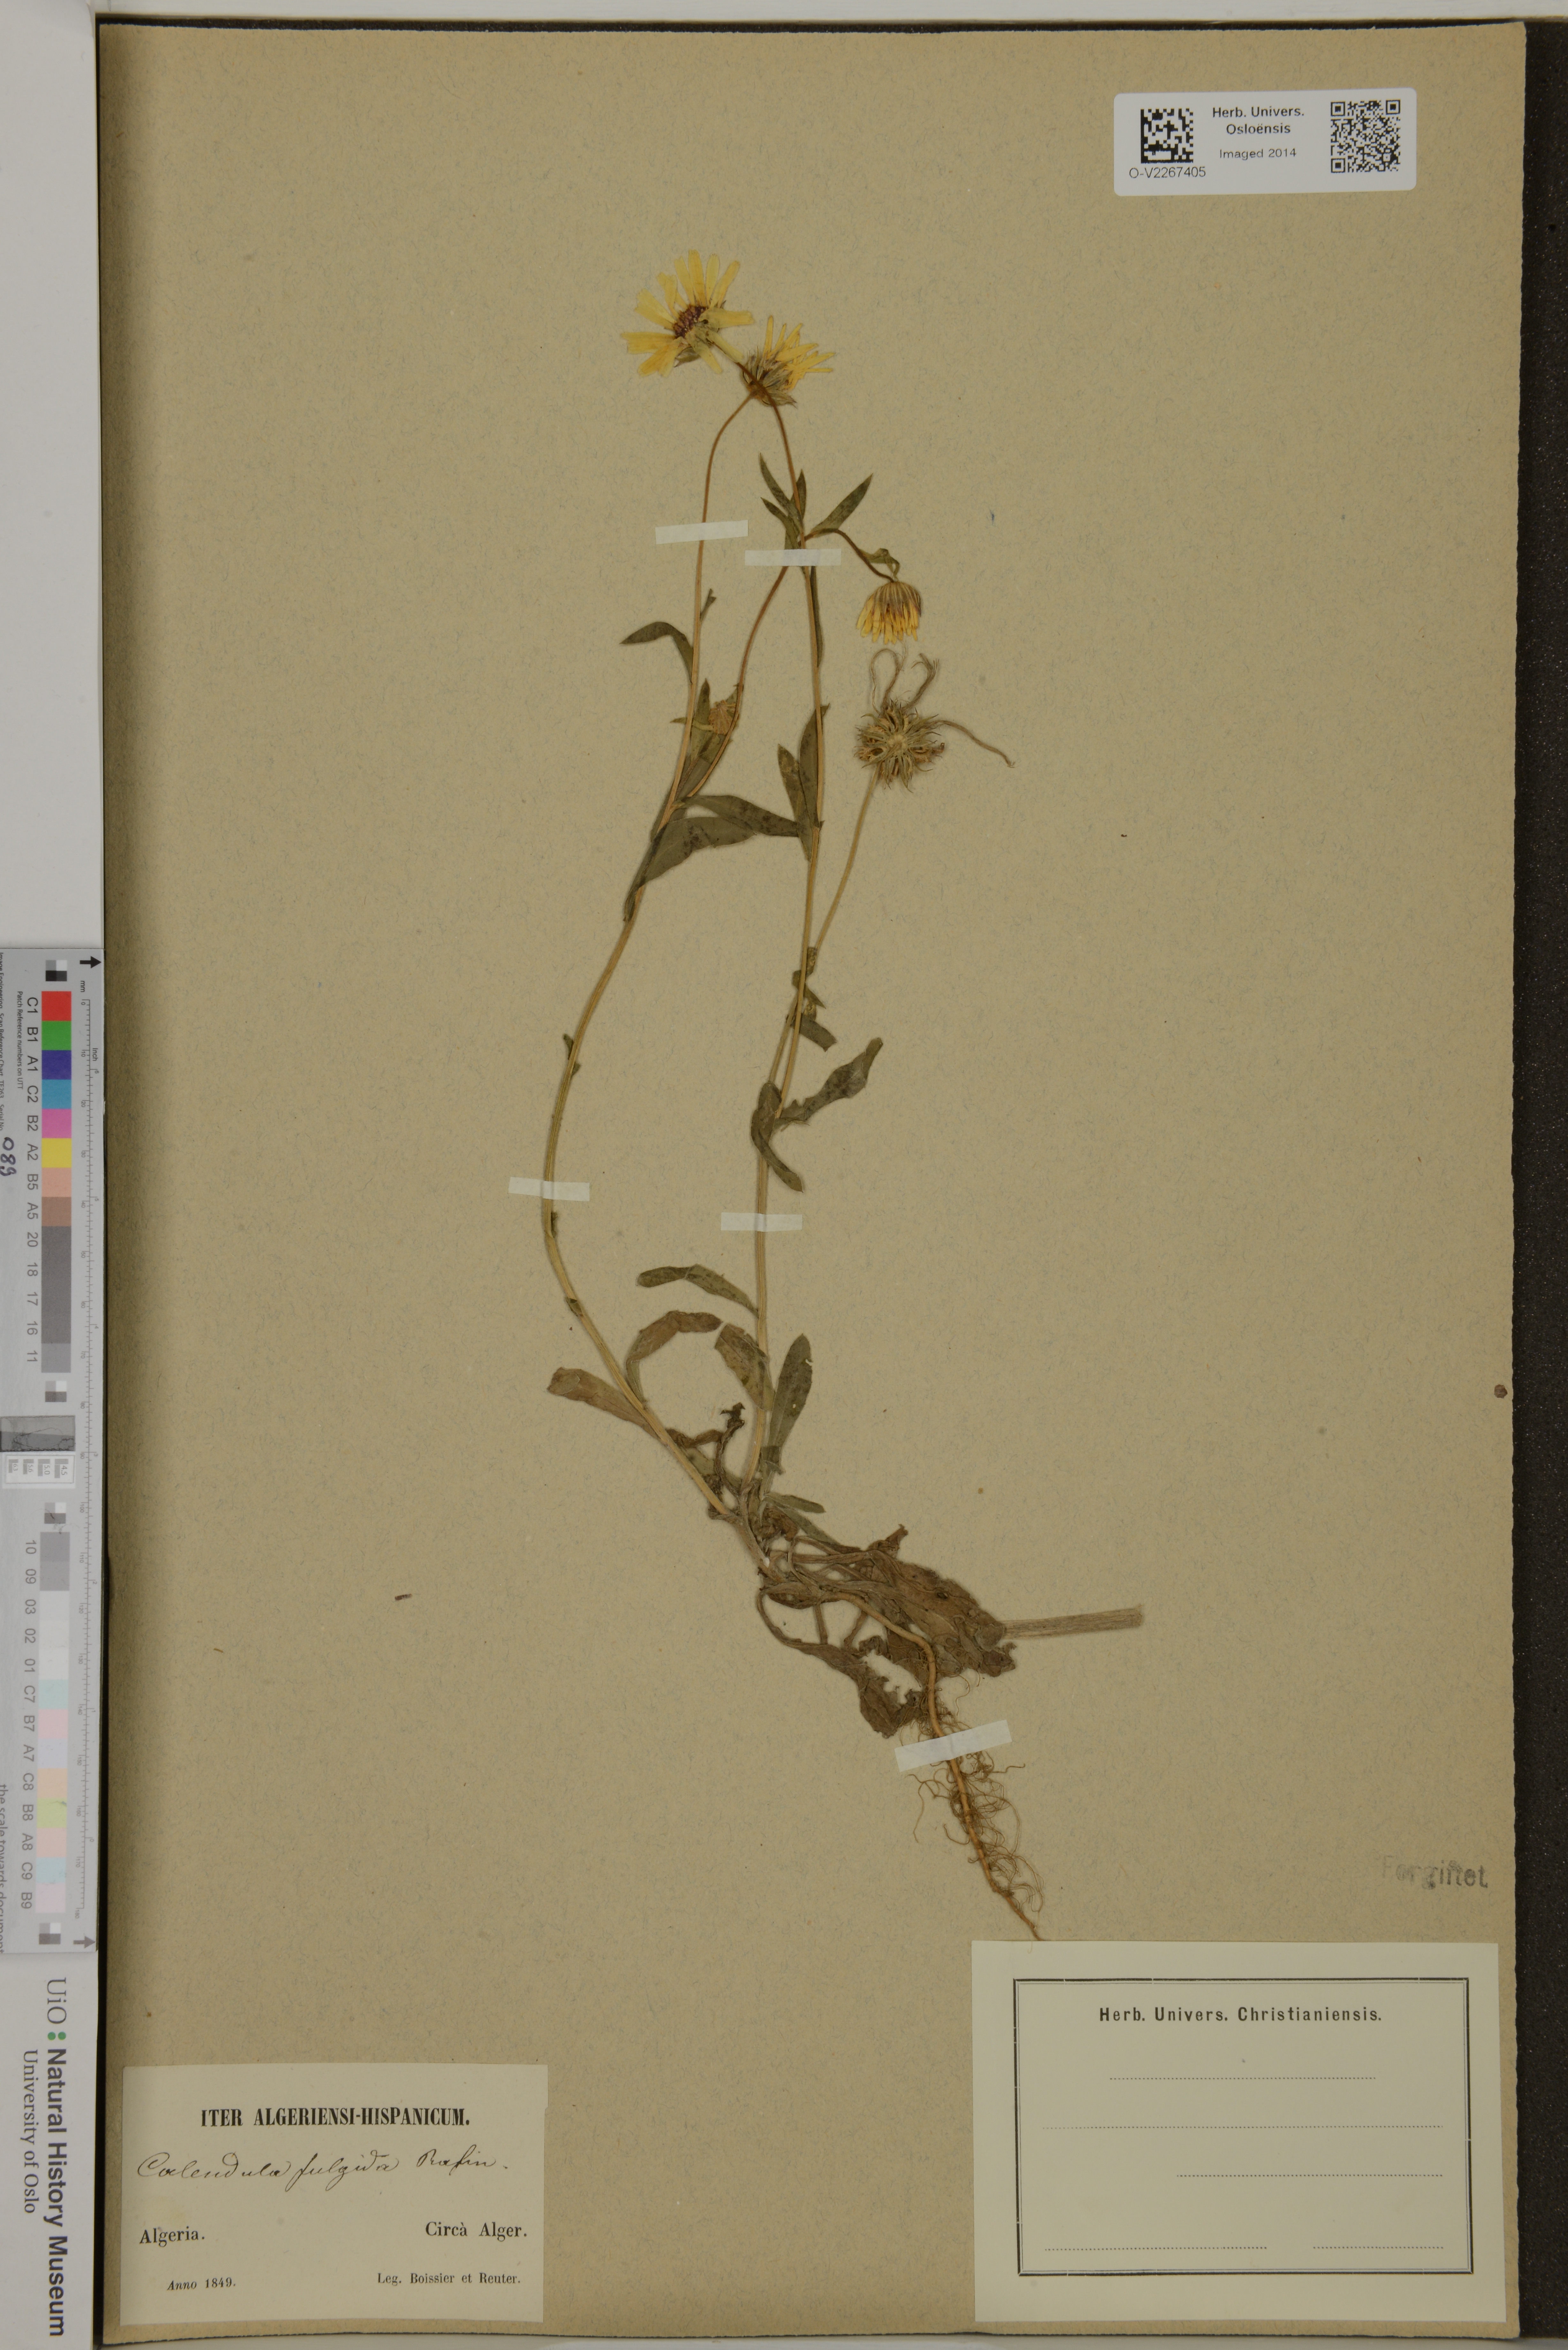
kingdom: Plantae
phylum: Tracheophyta
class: Magnoliopsida
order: Asterales
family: Asteraceae
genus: Calendula
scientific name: Calendula suffruticosa
